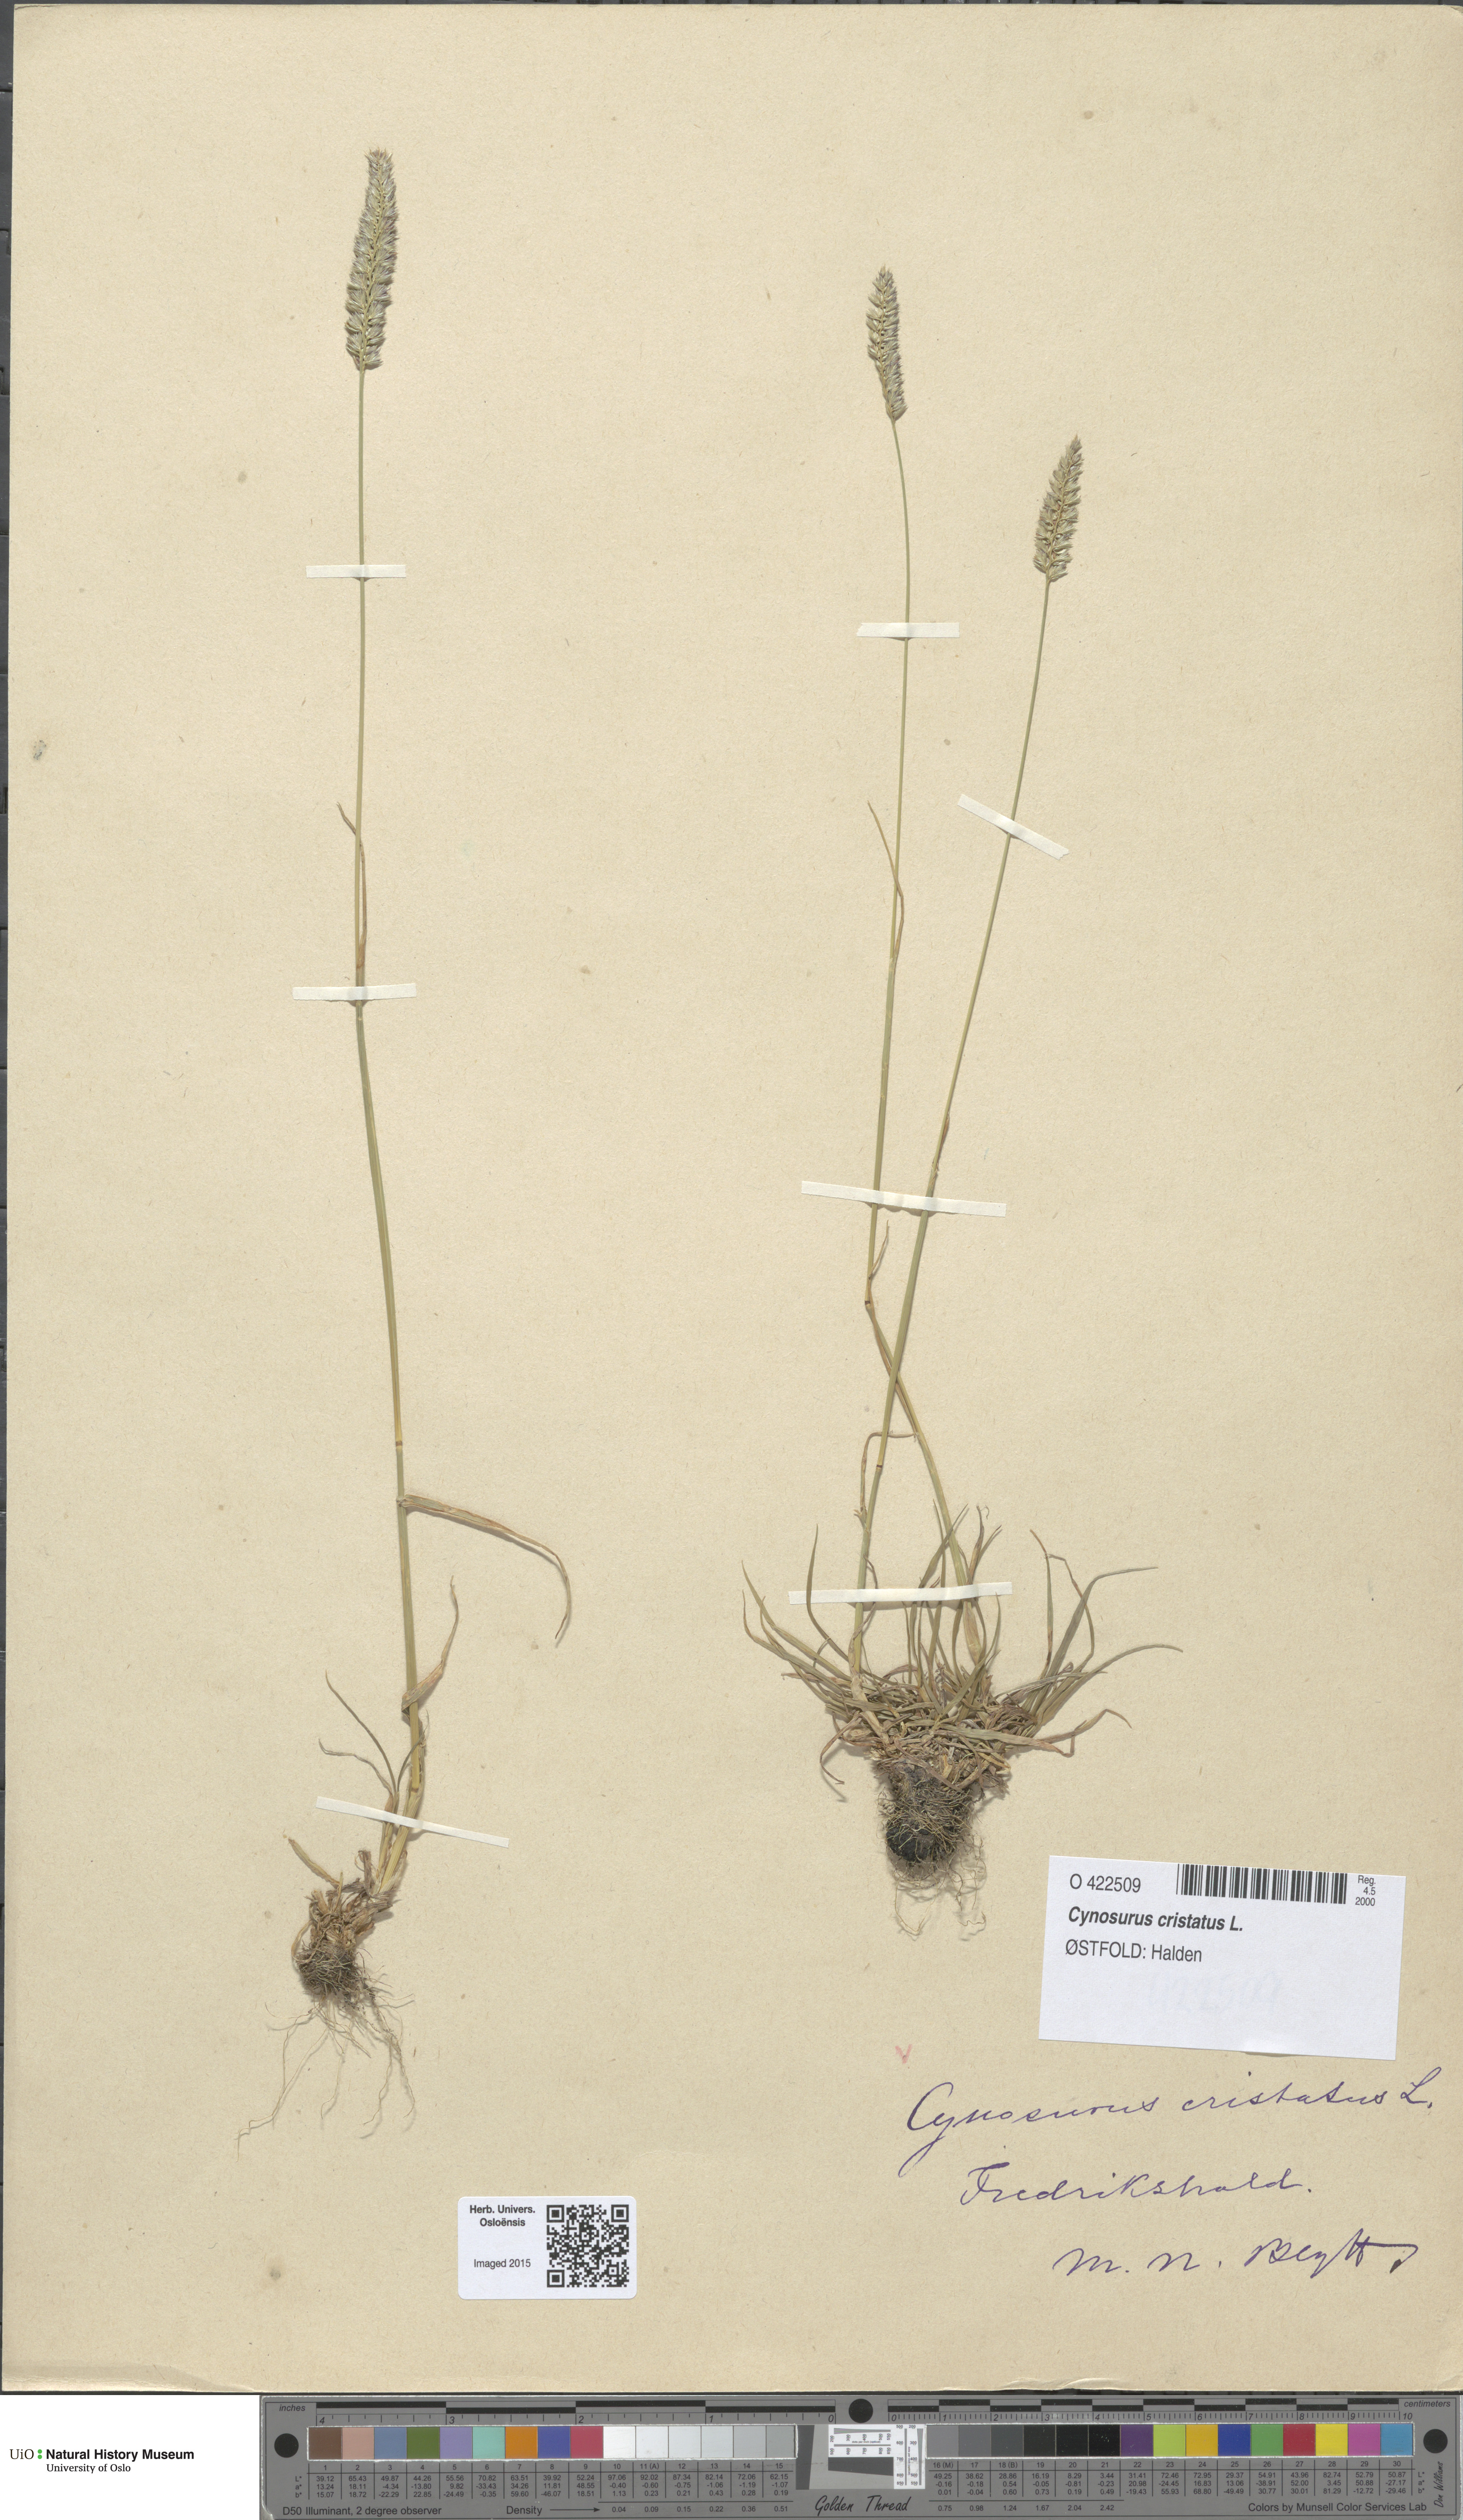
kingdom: Plantae
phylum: Tracheophyta
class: Liliopsida
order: Poales
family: Poaceae
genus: Cynosurus
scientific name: Cynosurus cristatus
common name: Crested dog's-tail
